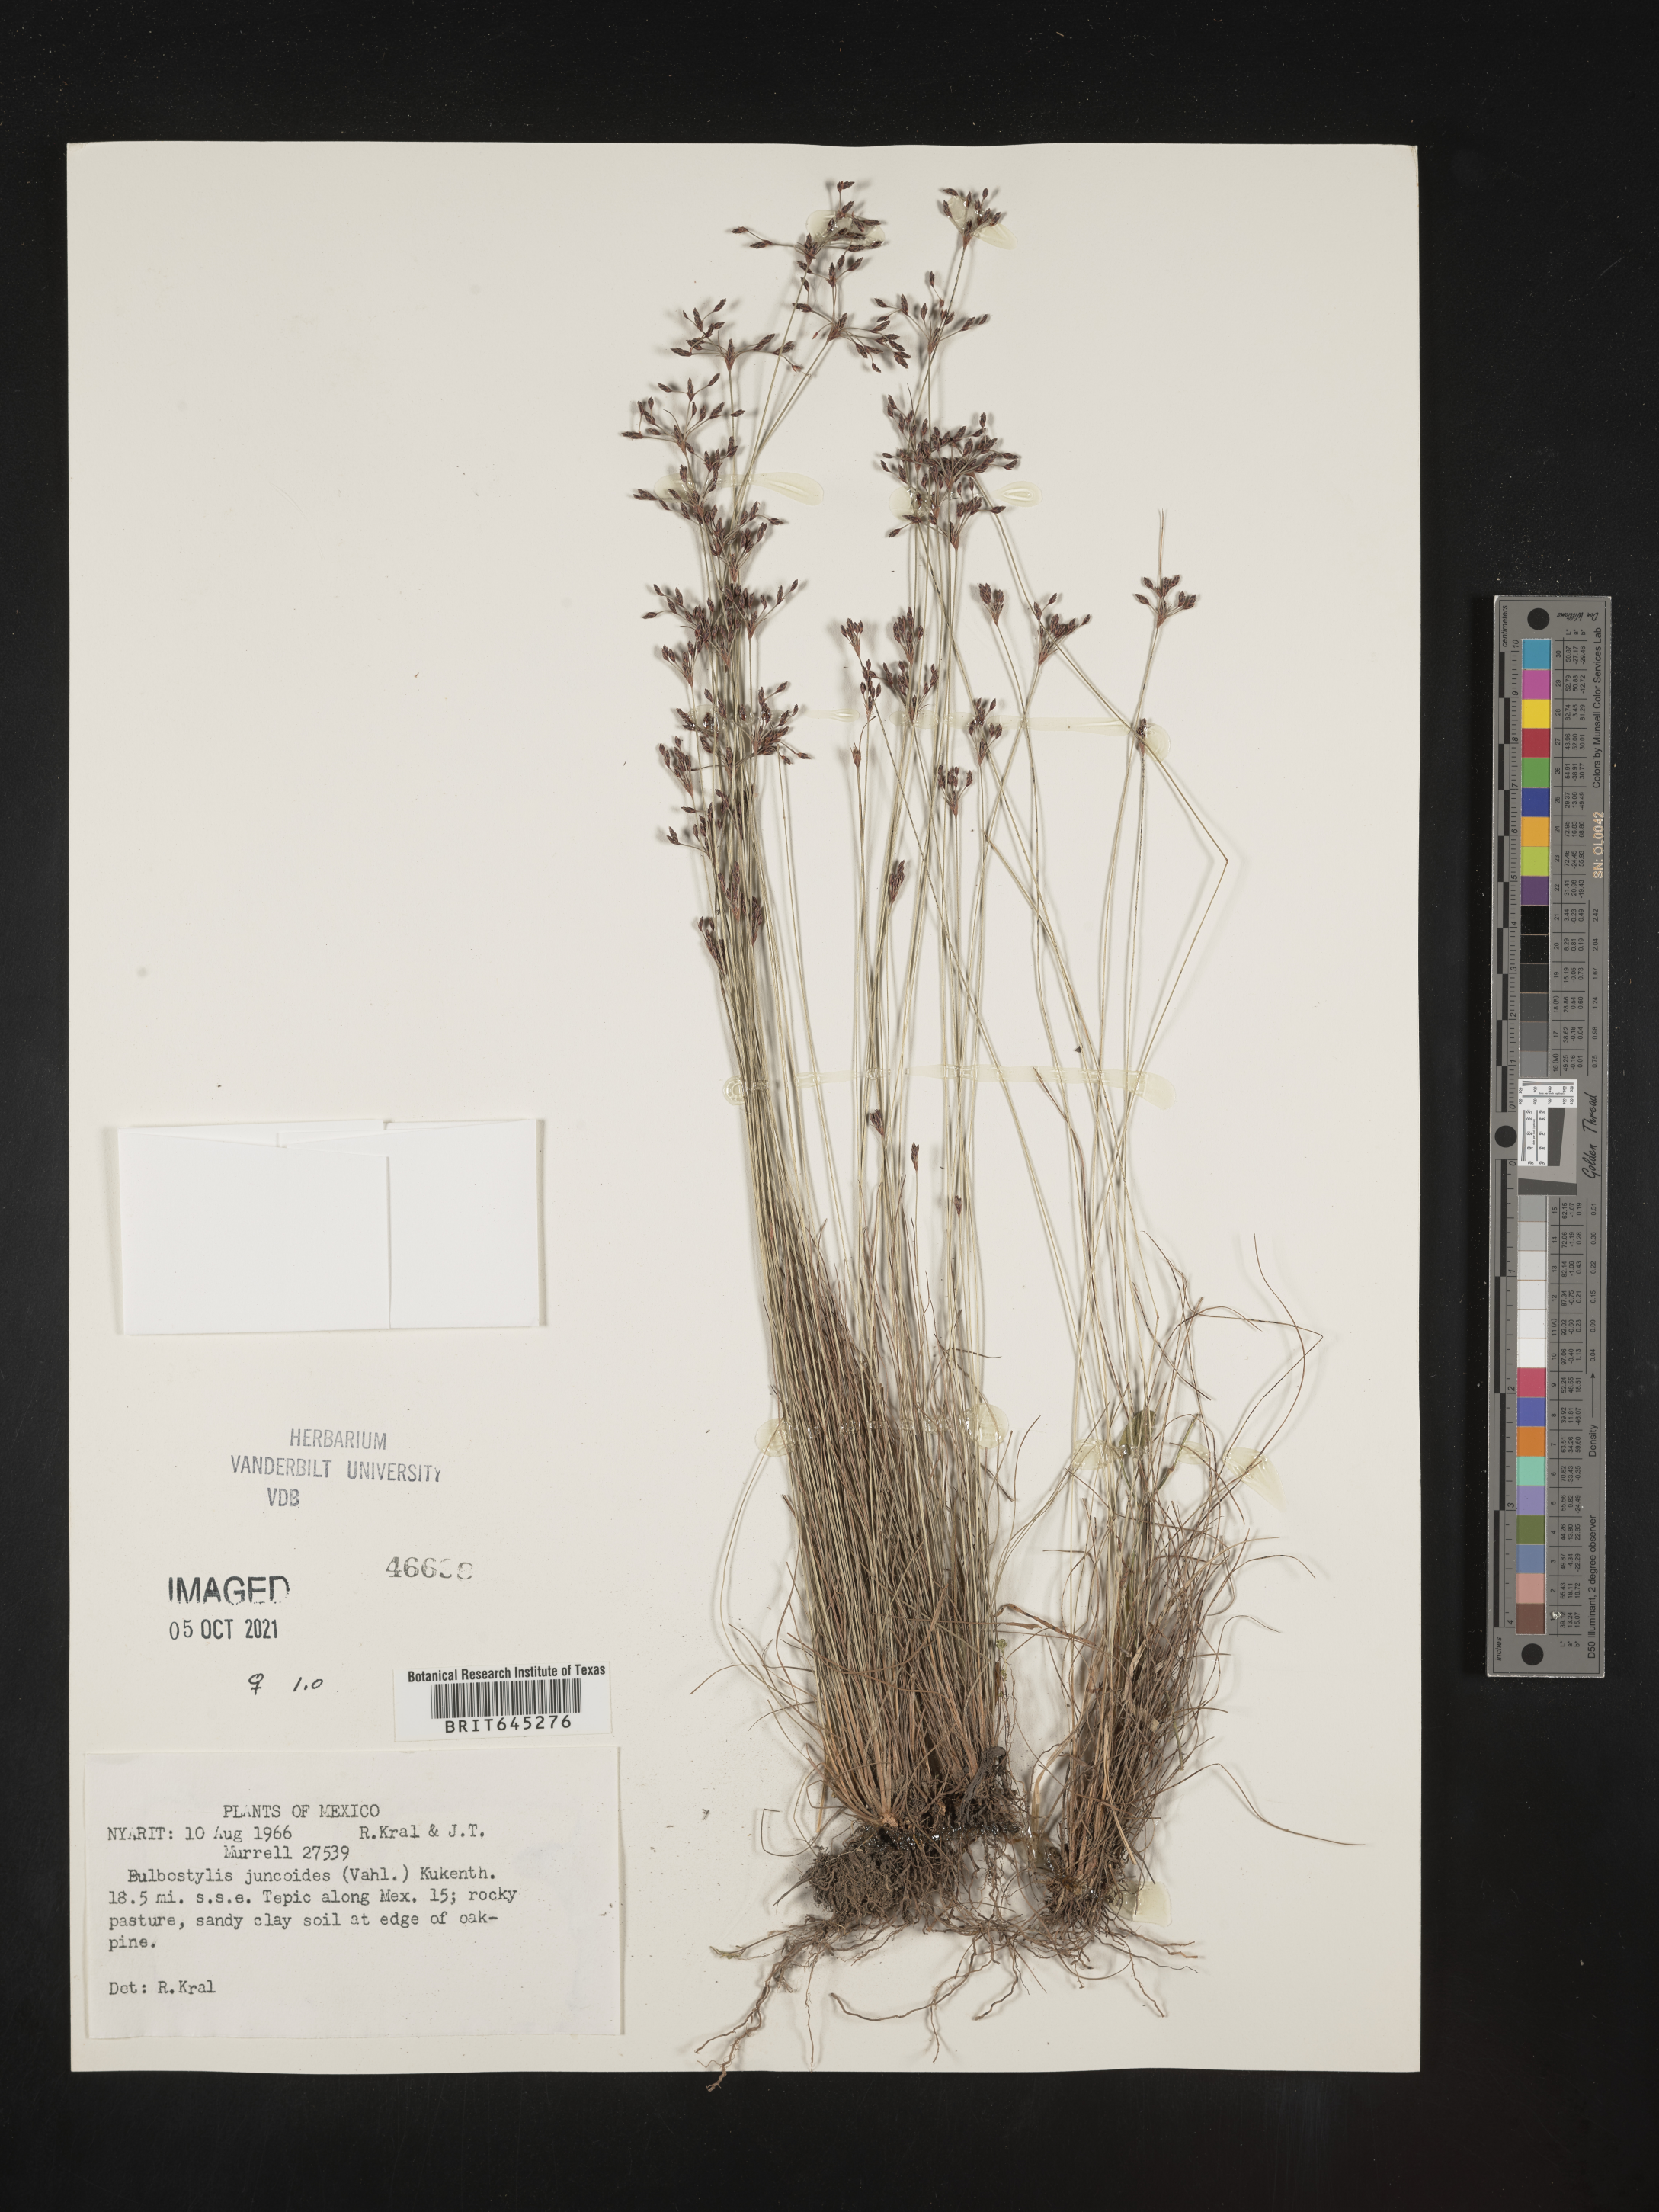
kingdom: Plantae
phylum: Tracheophyta
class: Liliopsida
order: Poales
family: Cyperaceae
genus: Bulbostylis
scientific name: Bulbostylis juncoides
